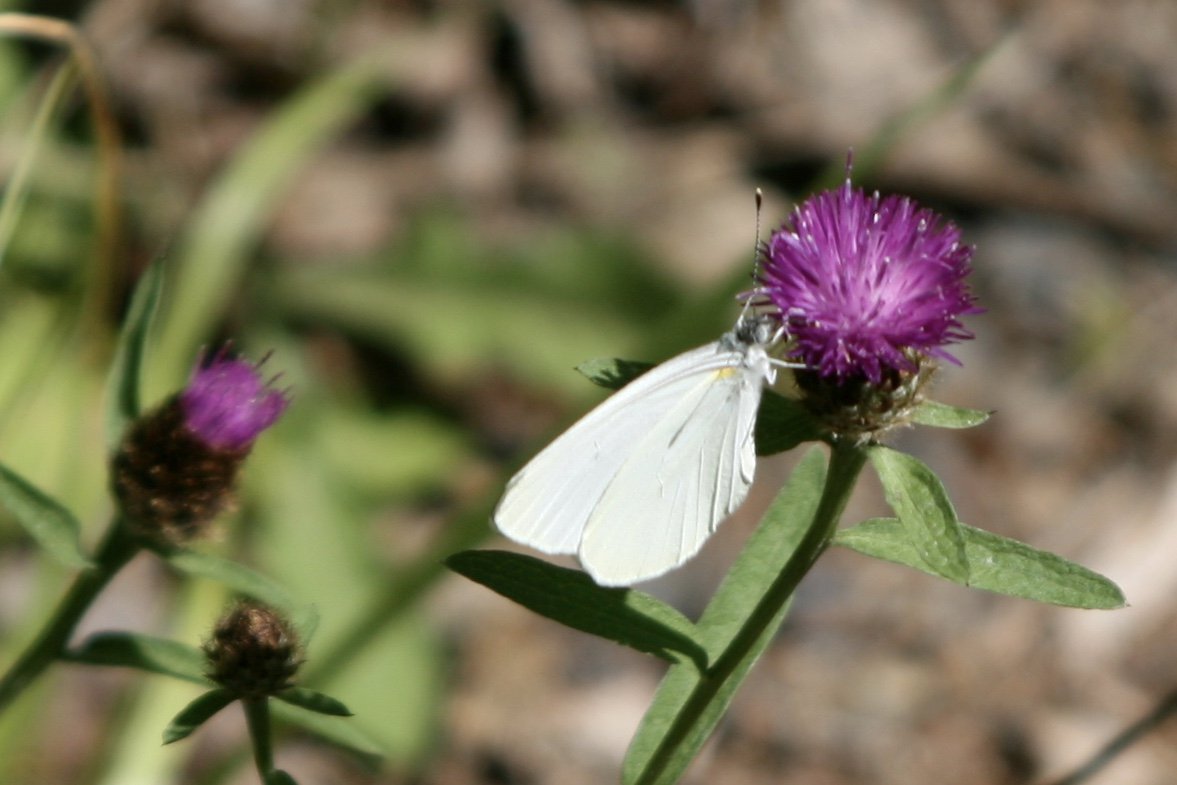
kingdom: Animalia
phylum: Arthropoda
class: Insecta
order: Lepidoptera
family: Pieridae
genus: Pieris
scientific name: Pieris oleracea
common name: Mustard White
